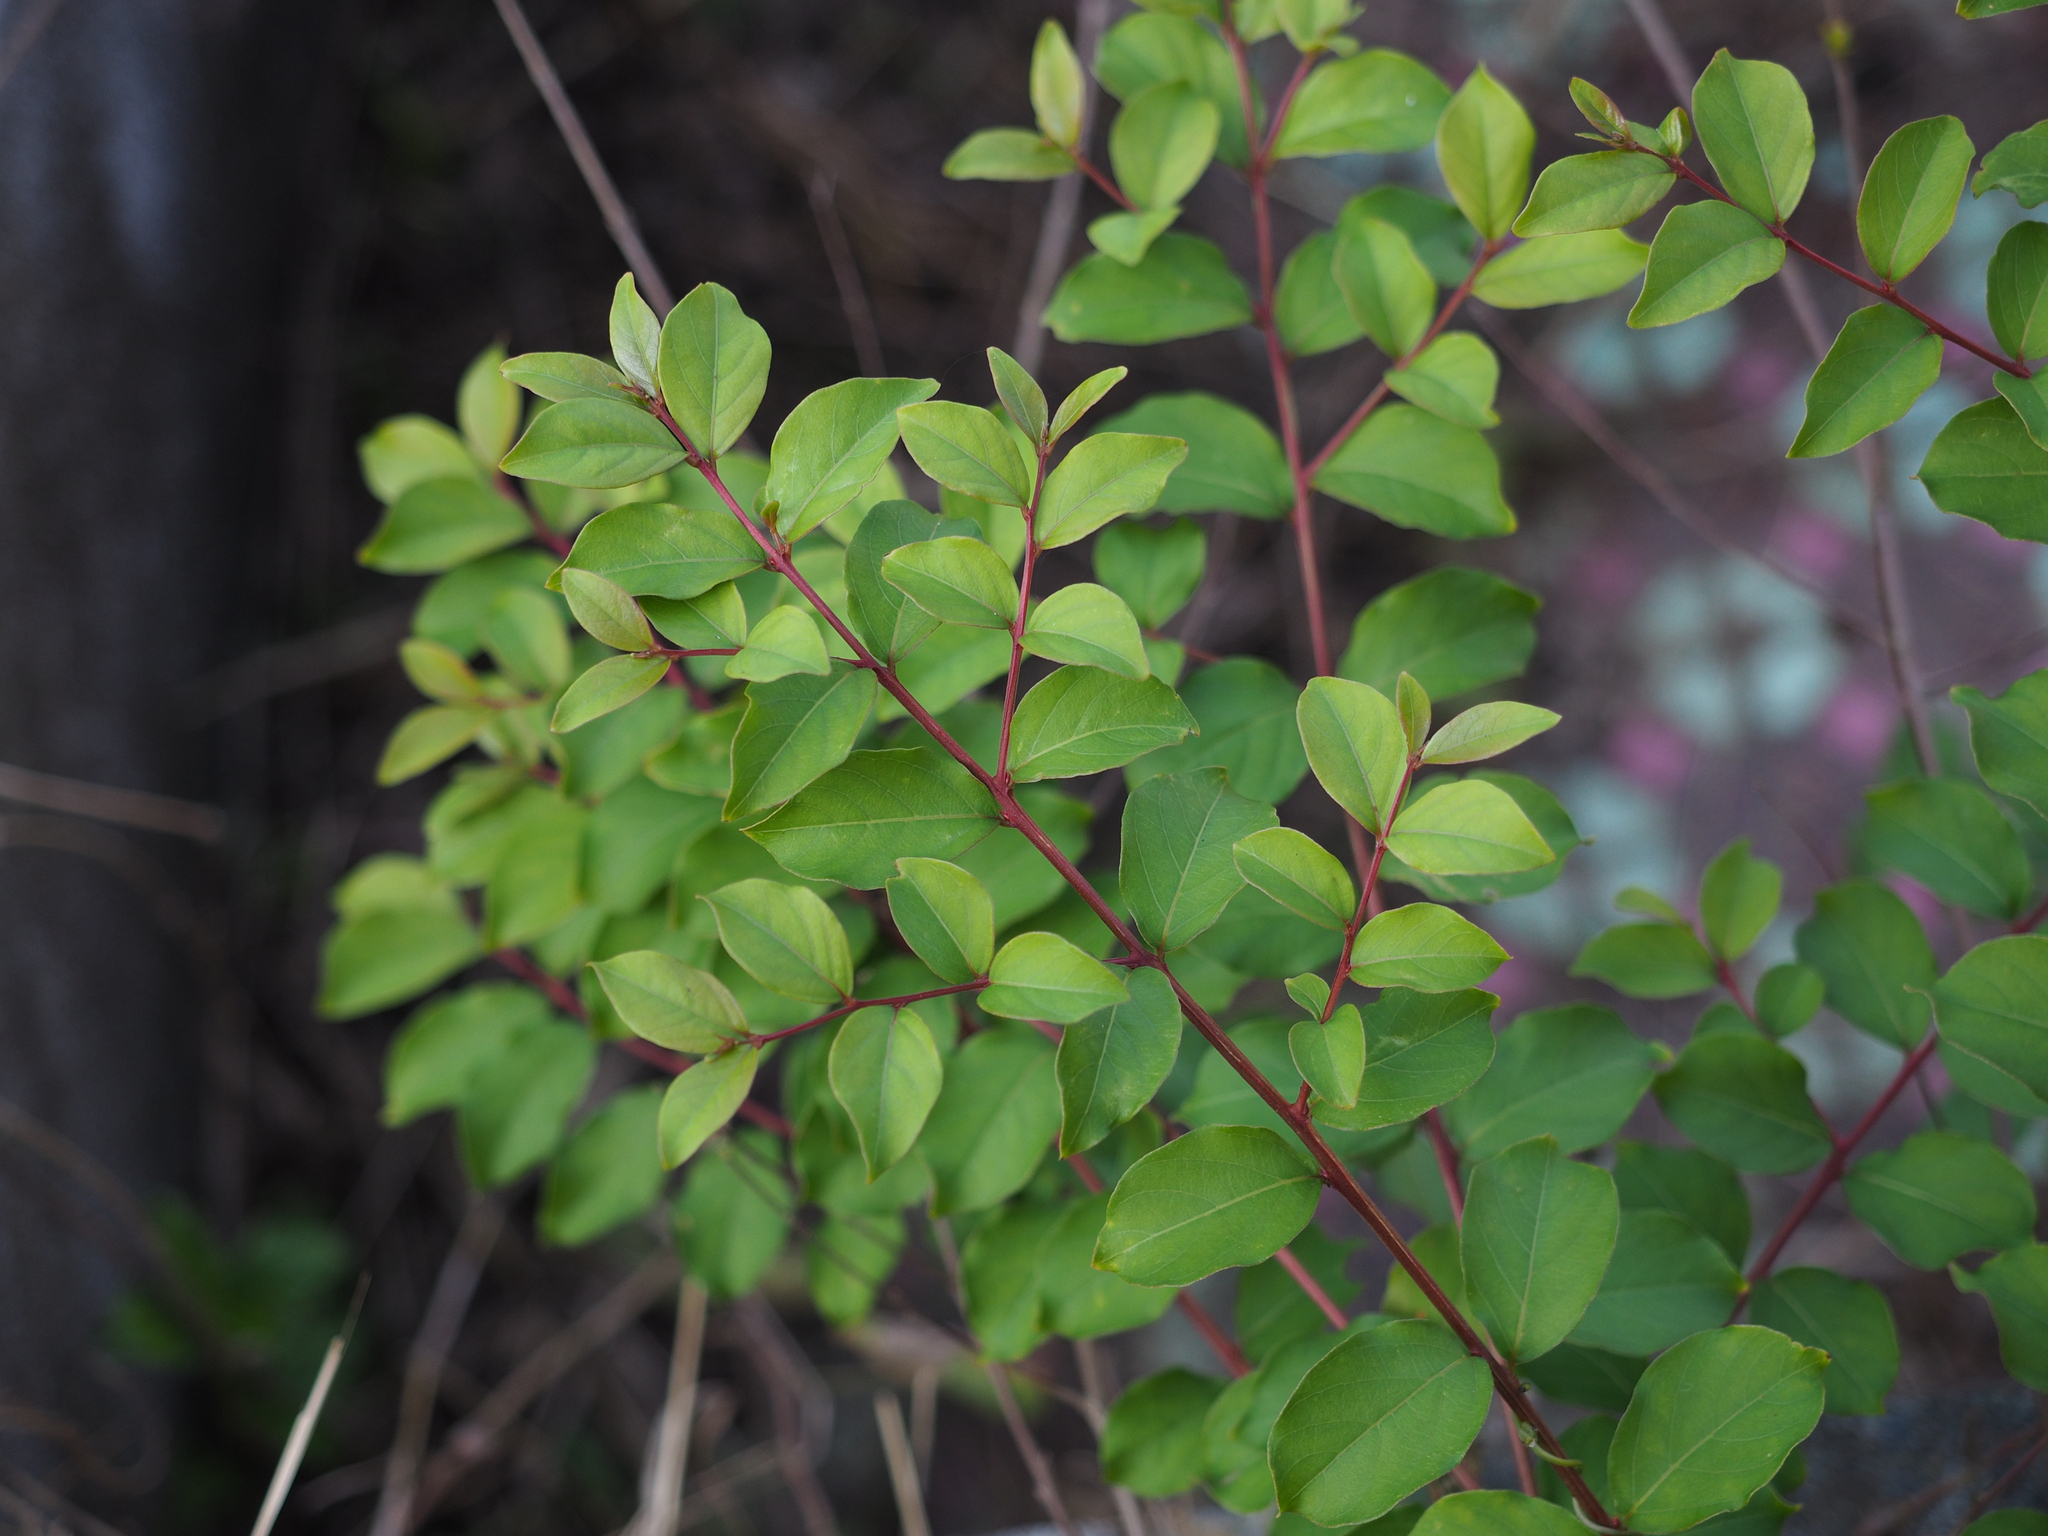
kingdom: Plantae
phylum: Tracheophyta
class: Magnoliopsida
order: Myrtales
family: Lythraceae
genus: Lagerstroemia
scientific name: Lagerstroemia subcostata
